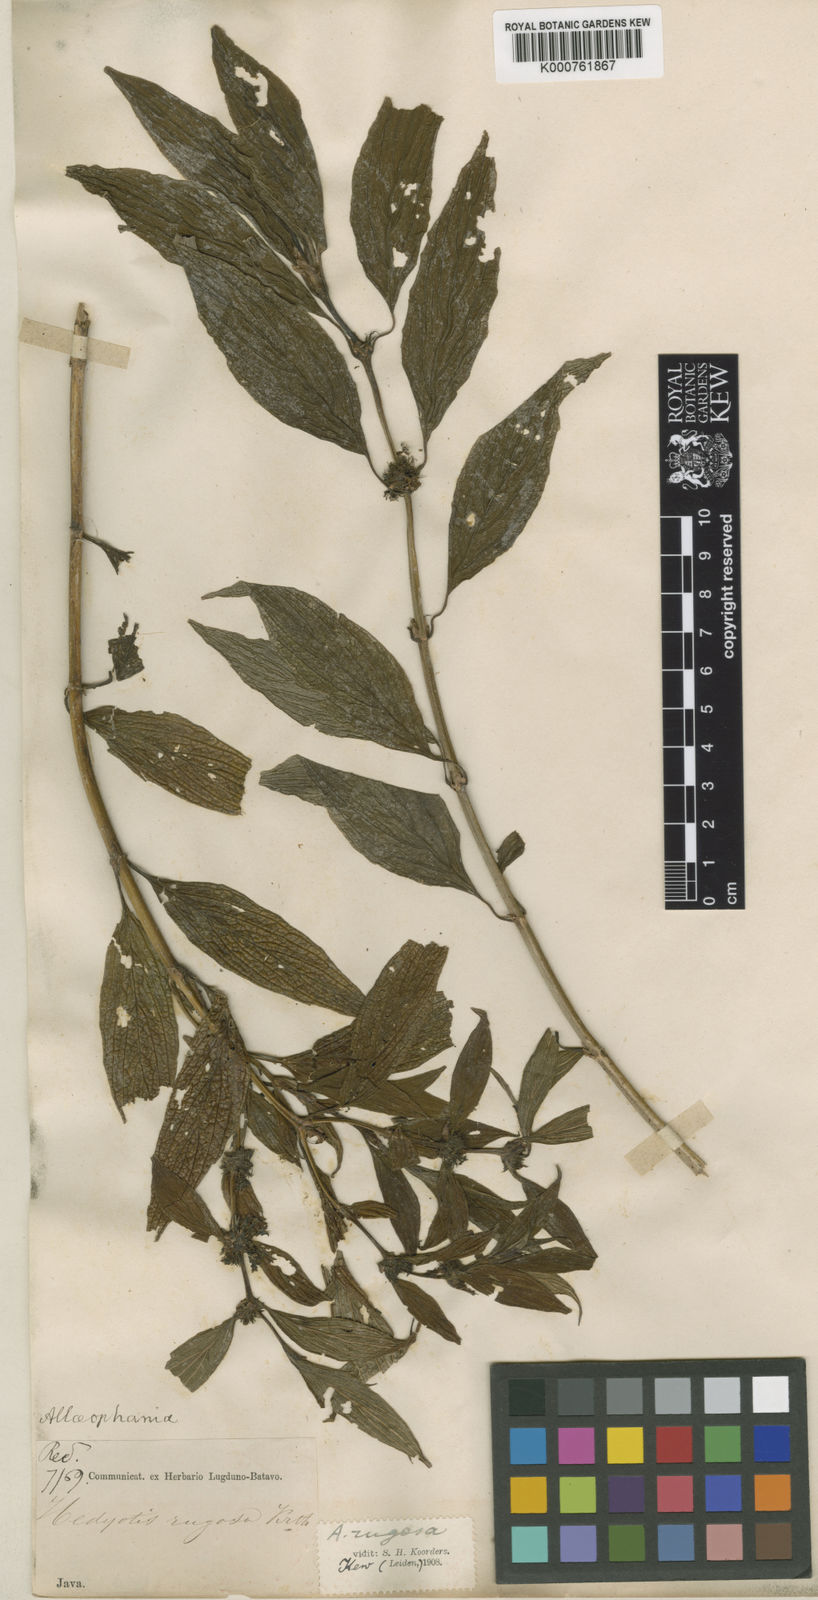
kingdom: Plantae
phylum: Tracheophyta
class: Magnoliopsida
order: Gentianales
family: Rubiaceae
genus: Amaracarpus
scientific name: Amaracarpus
